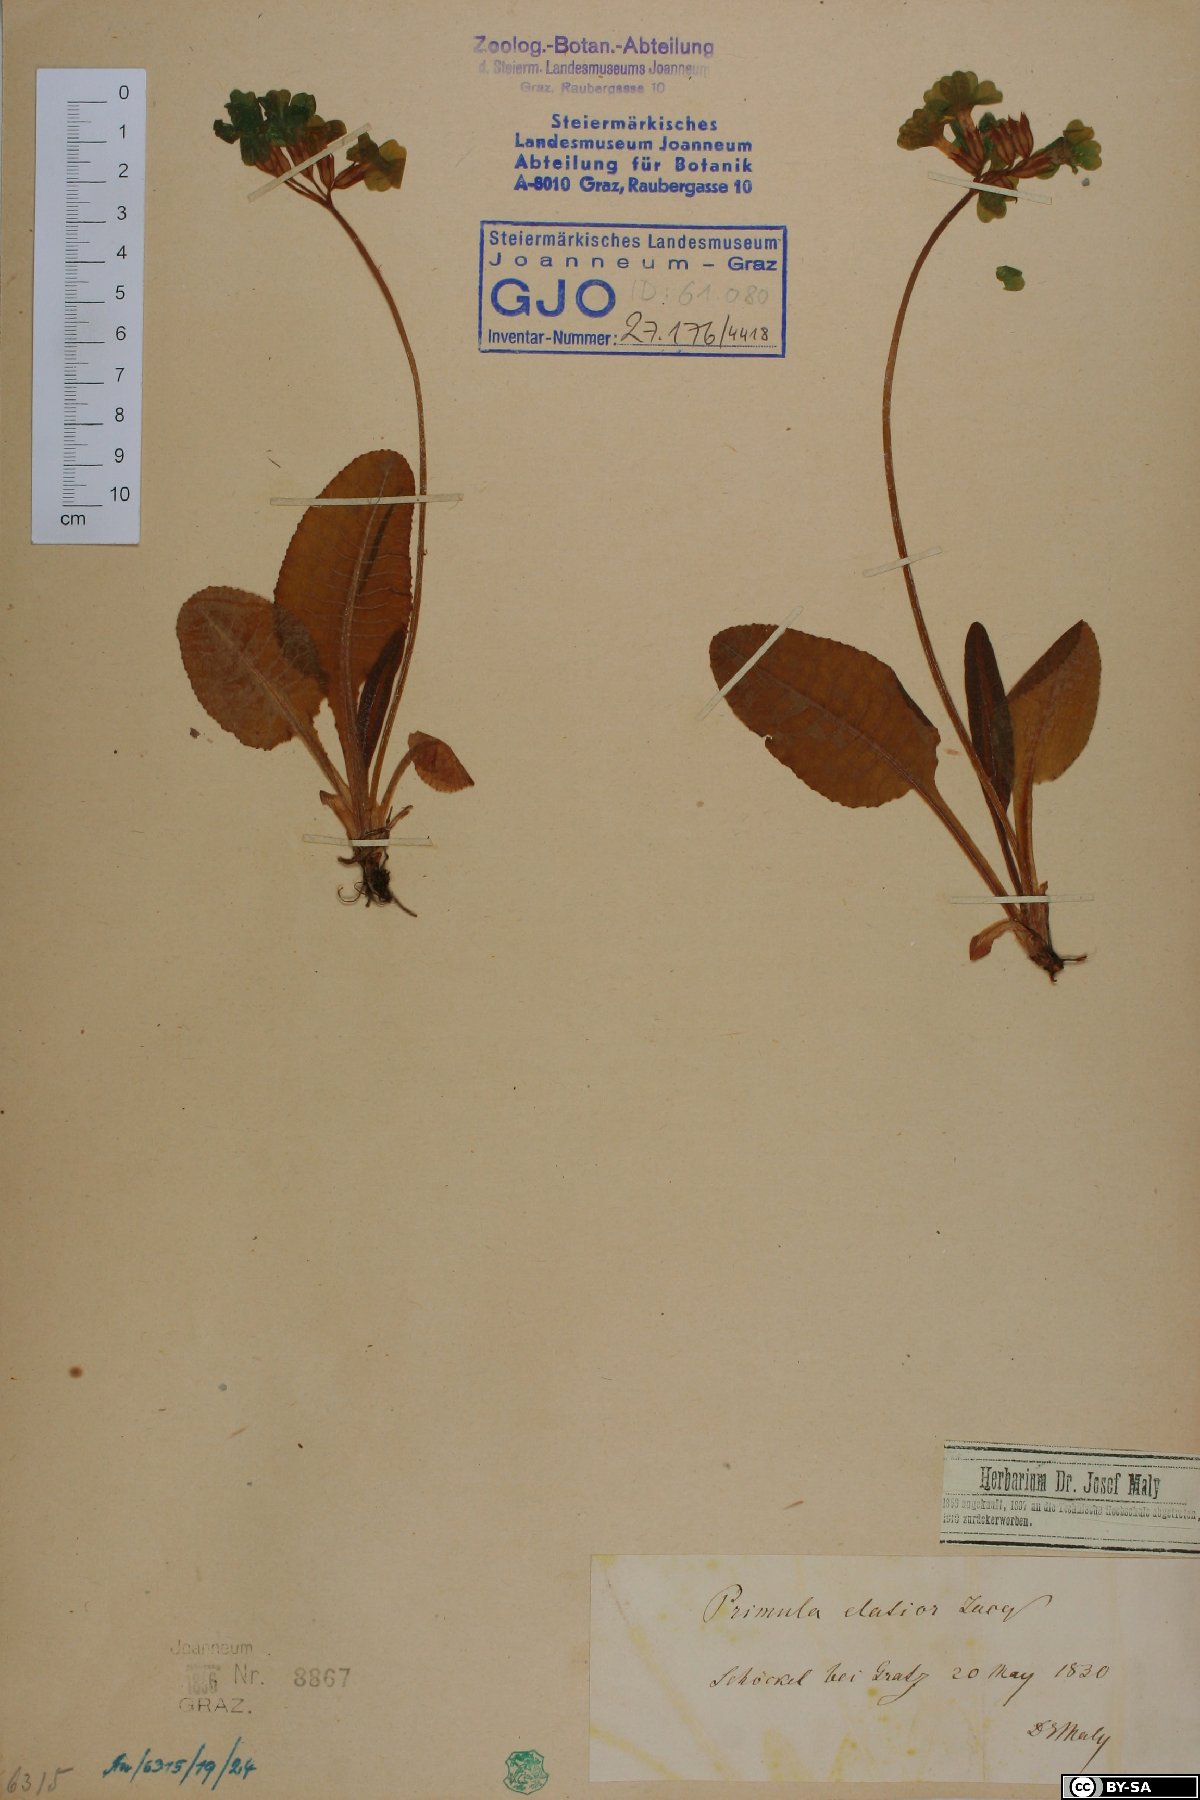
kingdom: Plantae
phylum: Tracheophyta
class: Magnoliopsida
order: Ericales
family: Primulaceae
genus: Primula
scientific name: Primula elatior
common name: Oxlip
